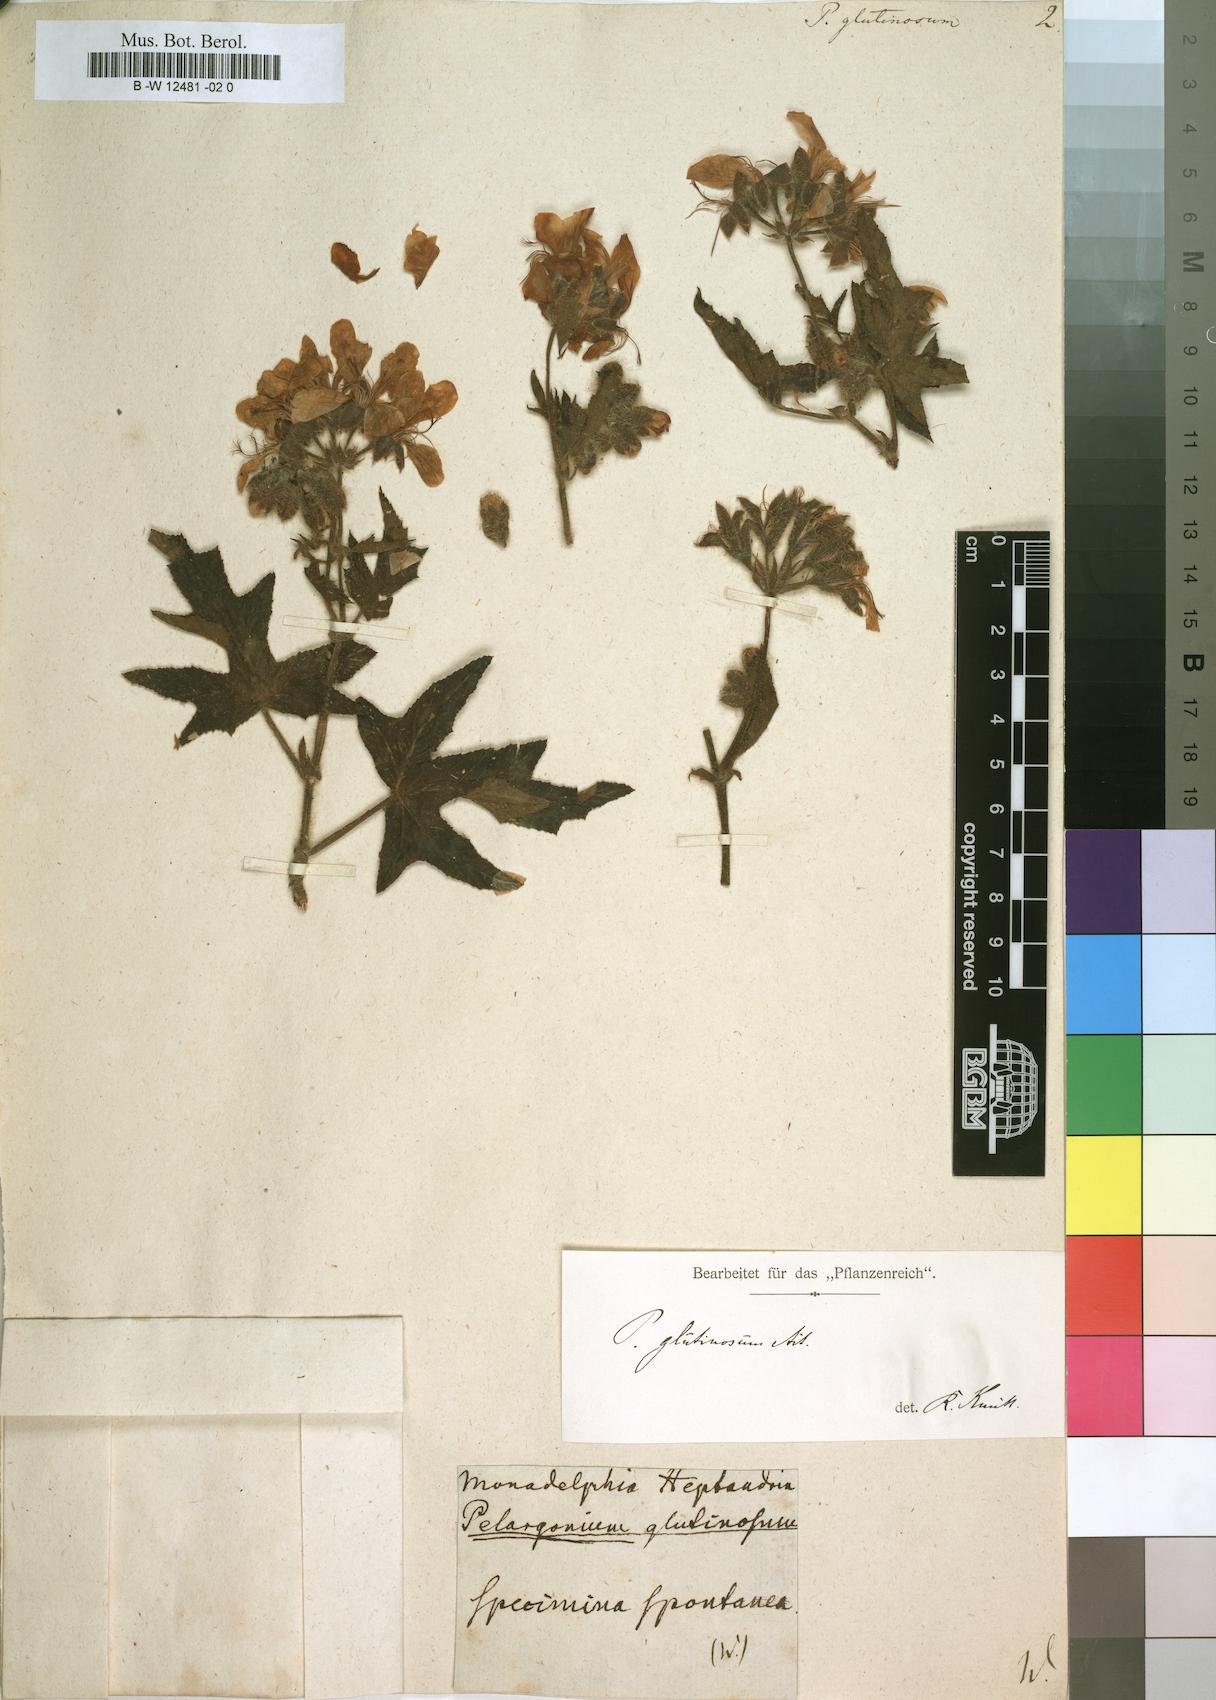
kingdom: Plantae
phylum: Tracheophyta
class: Magnoliopsida
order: Geraniales
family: Geraniaceae
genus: Pelargonium
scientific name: Pelargonium glutinosum
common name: Pheasant-foot geranium
